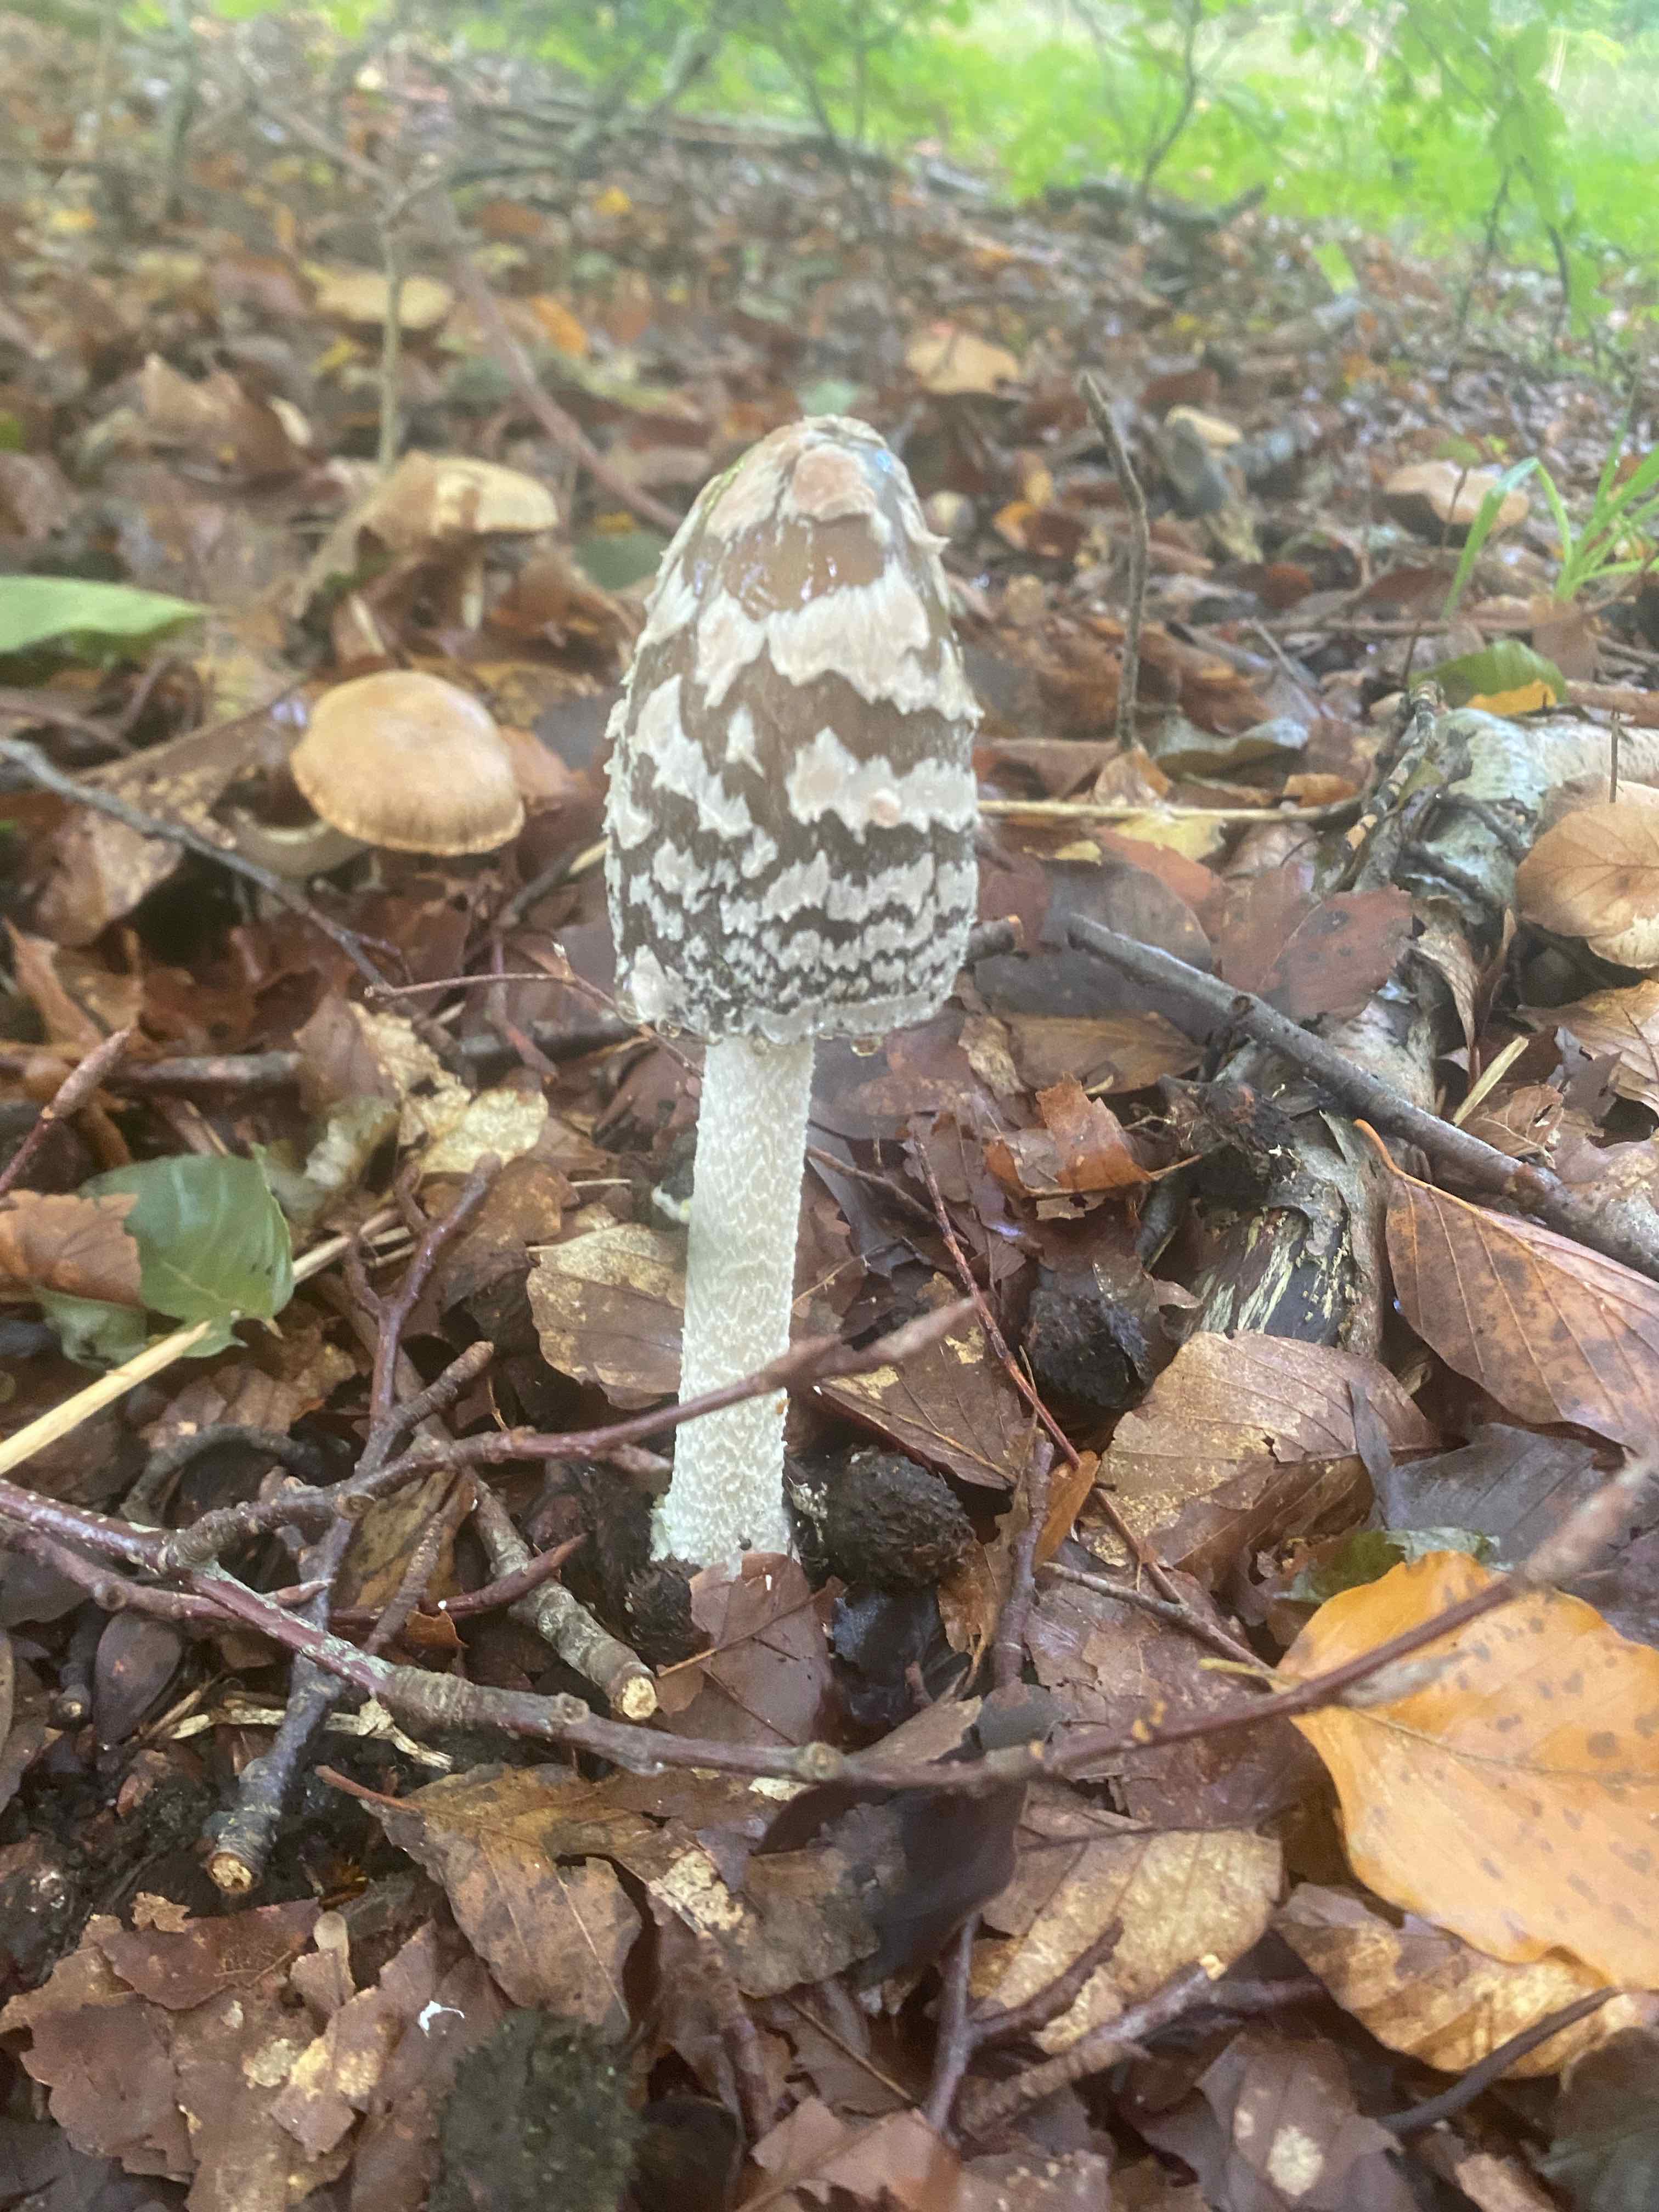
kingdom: Fungi
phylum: Basidiomycota
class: Agaricomycetes
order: Agaricales
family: Psathyrellaceae
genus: Coprinopsis
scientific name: Coprinopsis picacea
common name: skade-blækhat
